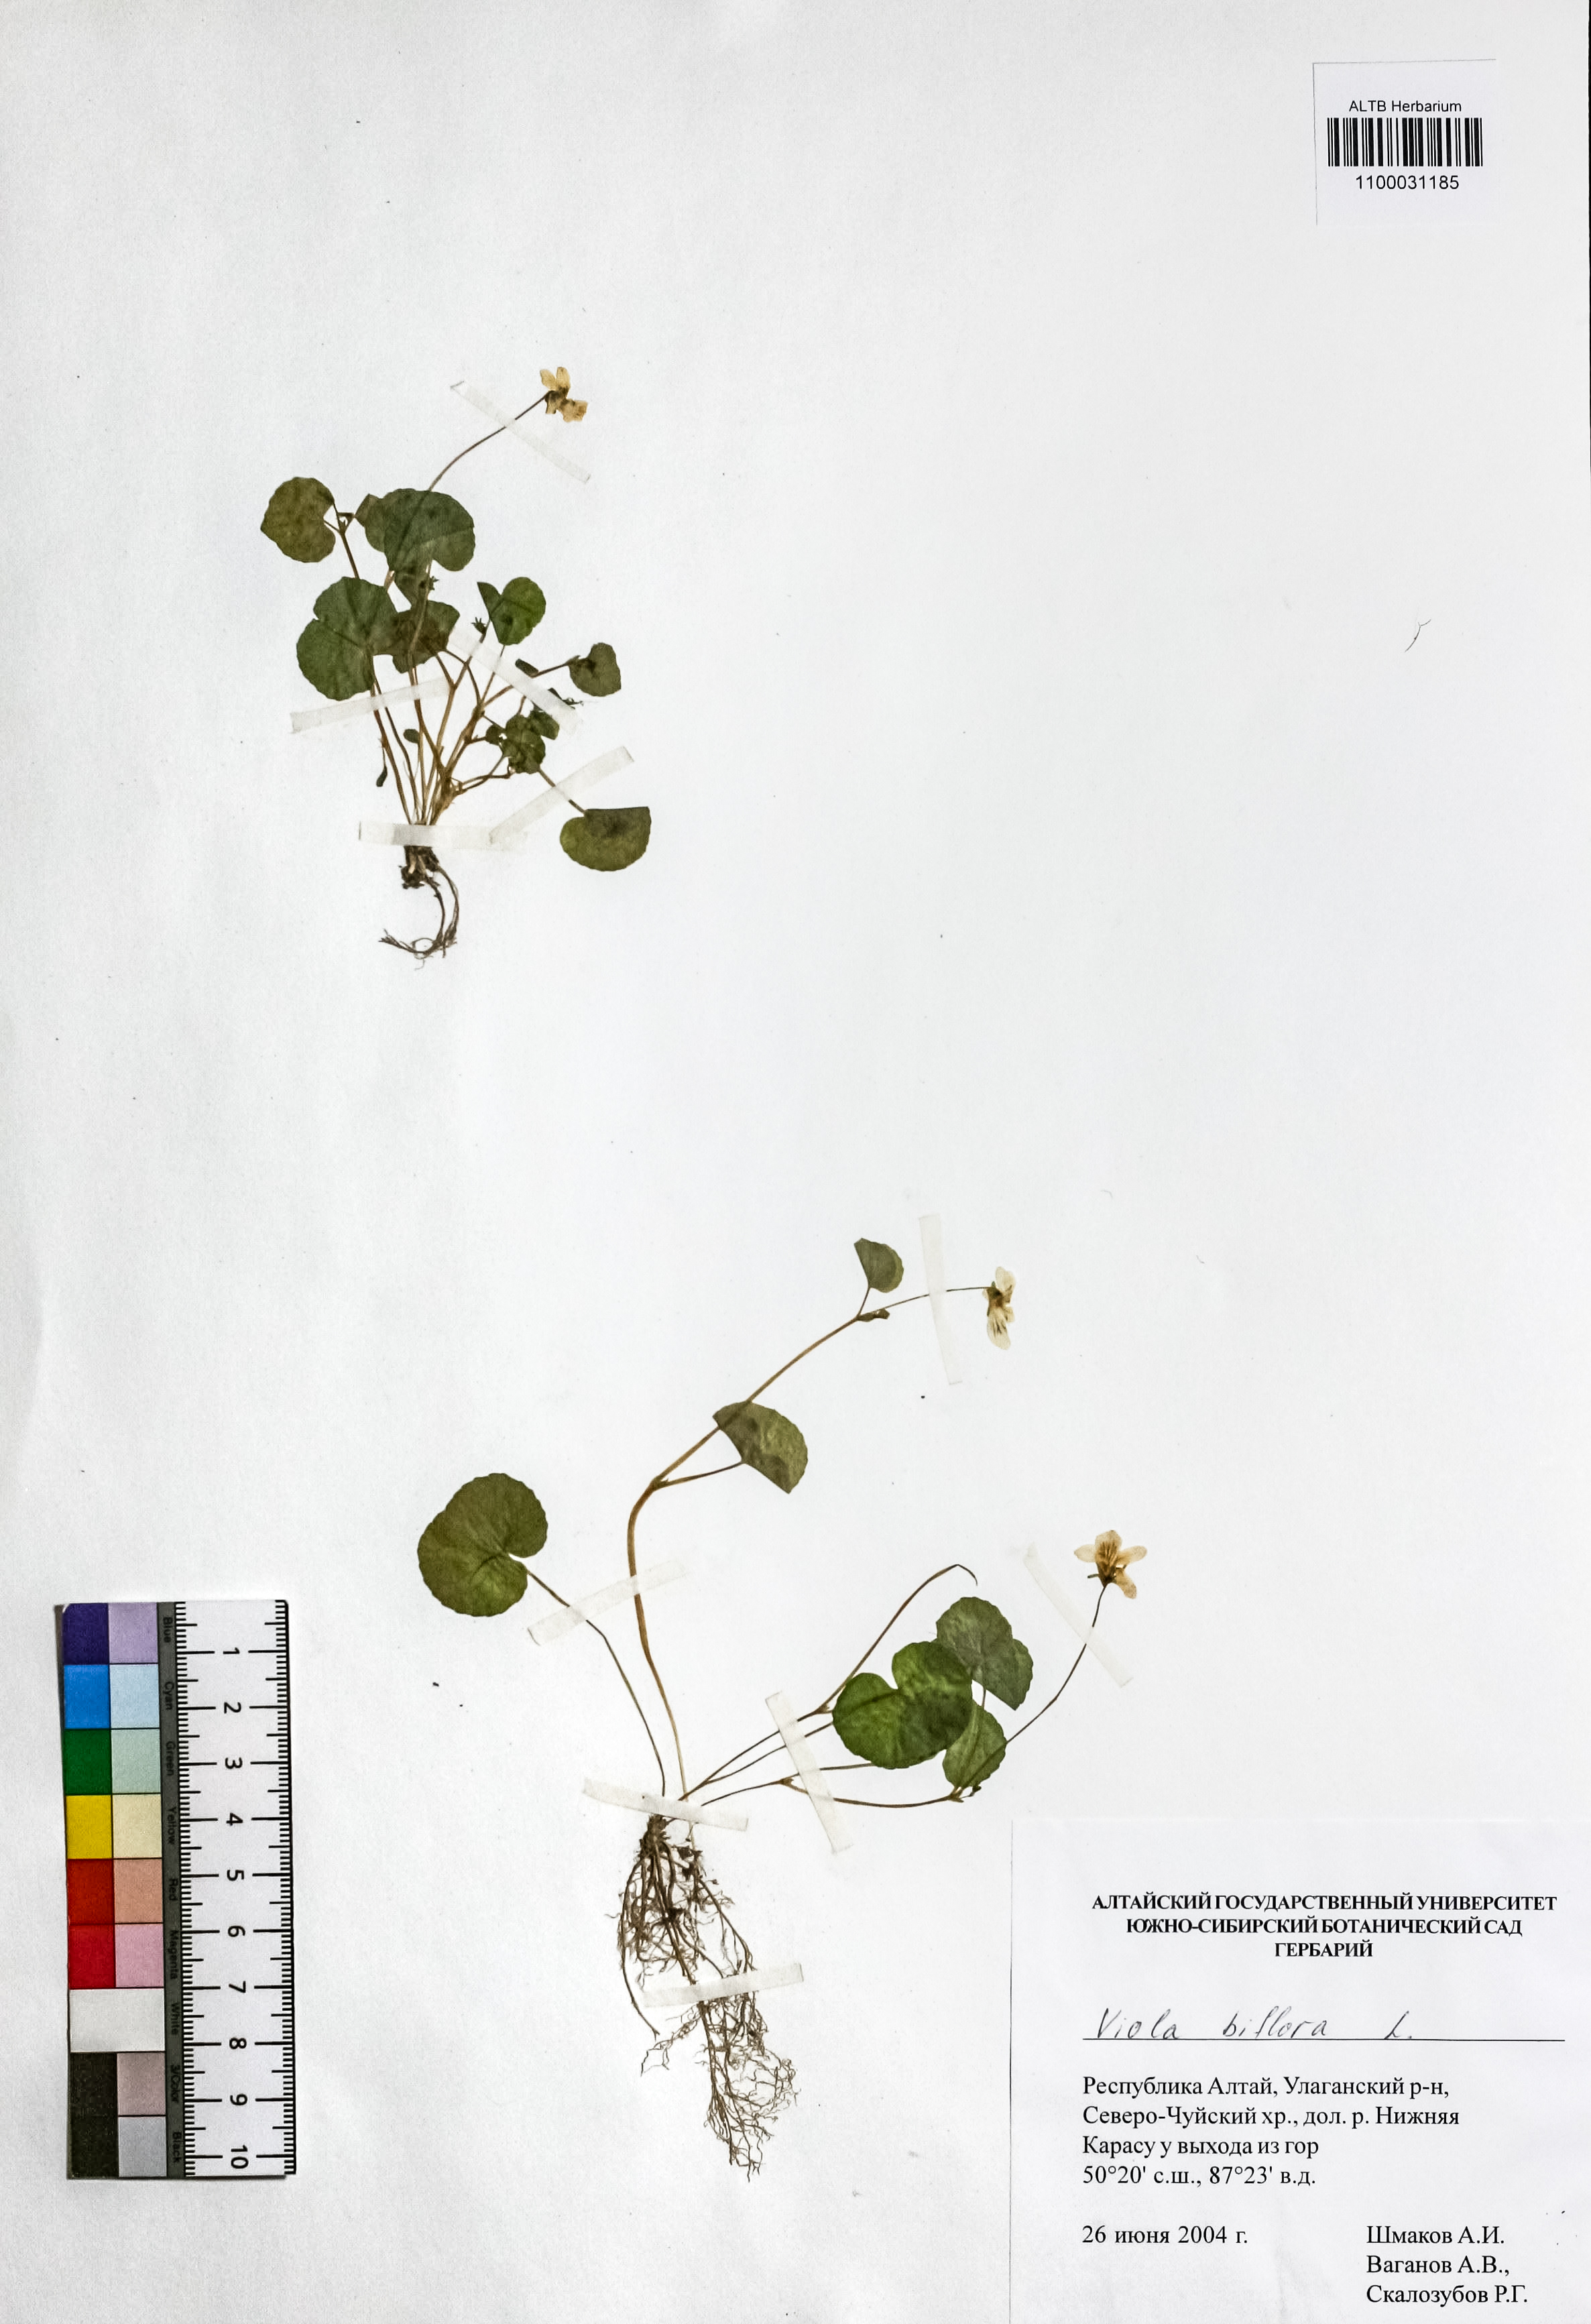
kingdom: Plantae
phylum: Tracheophyta
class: Magnoliopsida
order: Malpighiales
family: Violaceae
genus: Viola
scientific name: Viola biflora
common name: Alpine yellow violet
